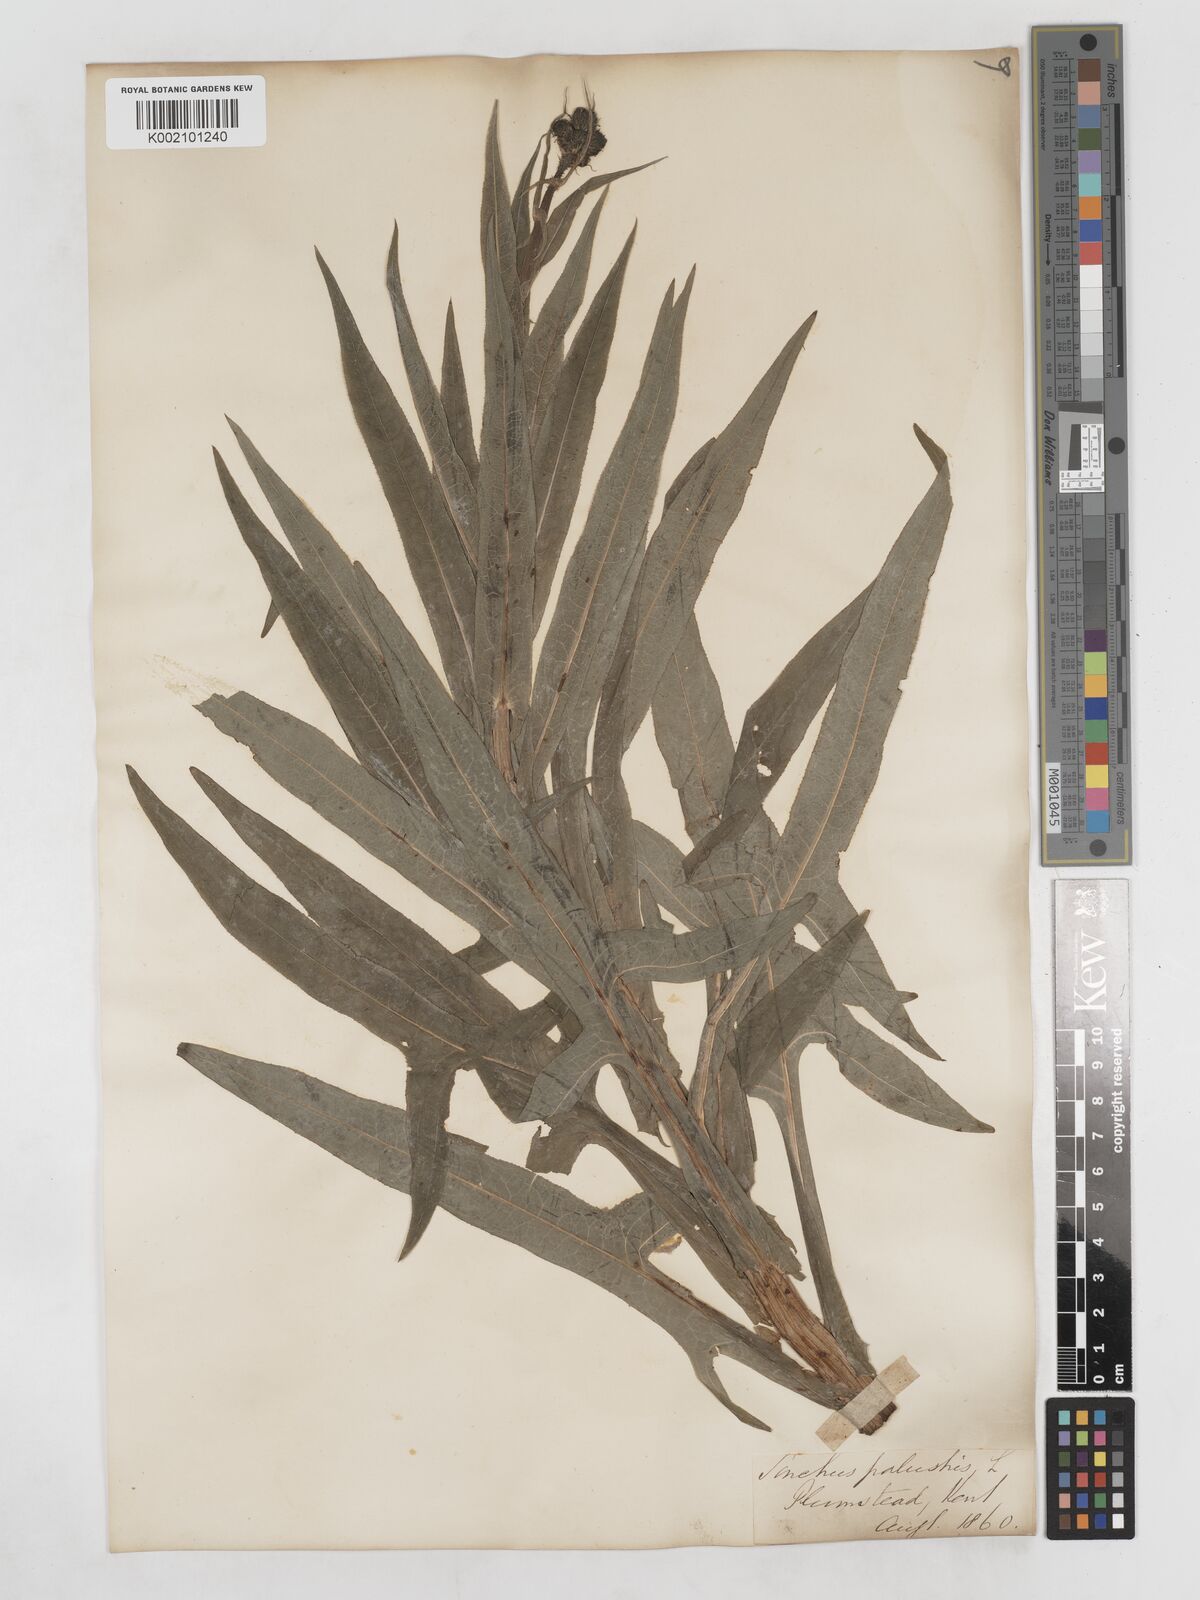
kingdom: Plantae
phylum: Tracheophyta
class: Magnoliopsida
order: Asterales
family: Asteraceae
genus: Sonchus
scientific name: Sonchus palustris
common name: Marsh sow-thistle
